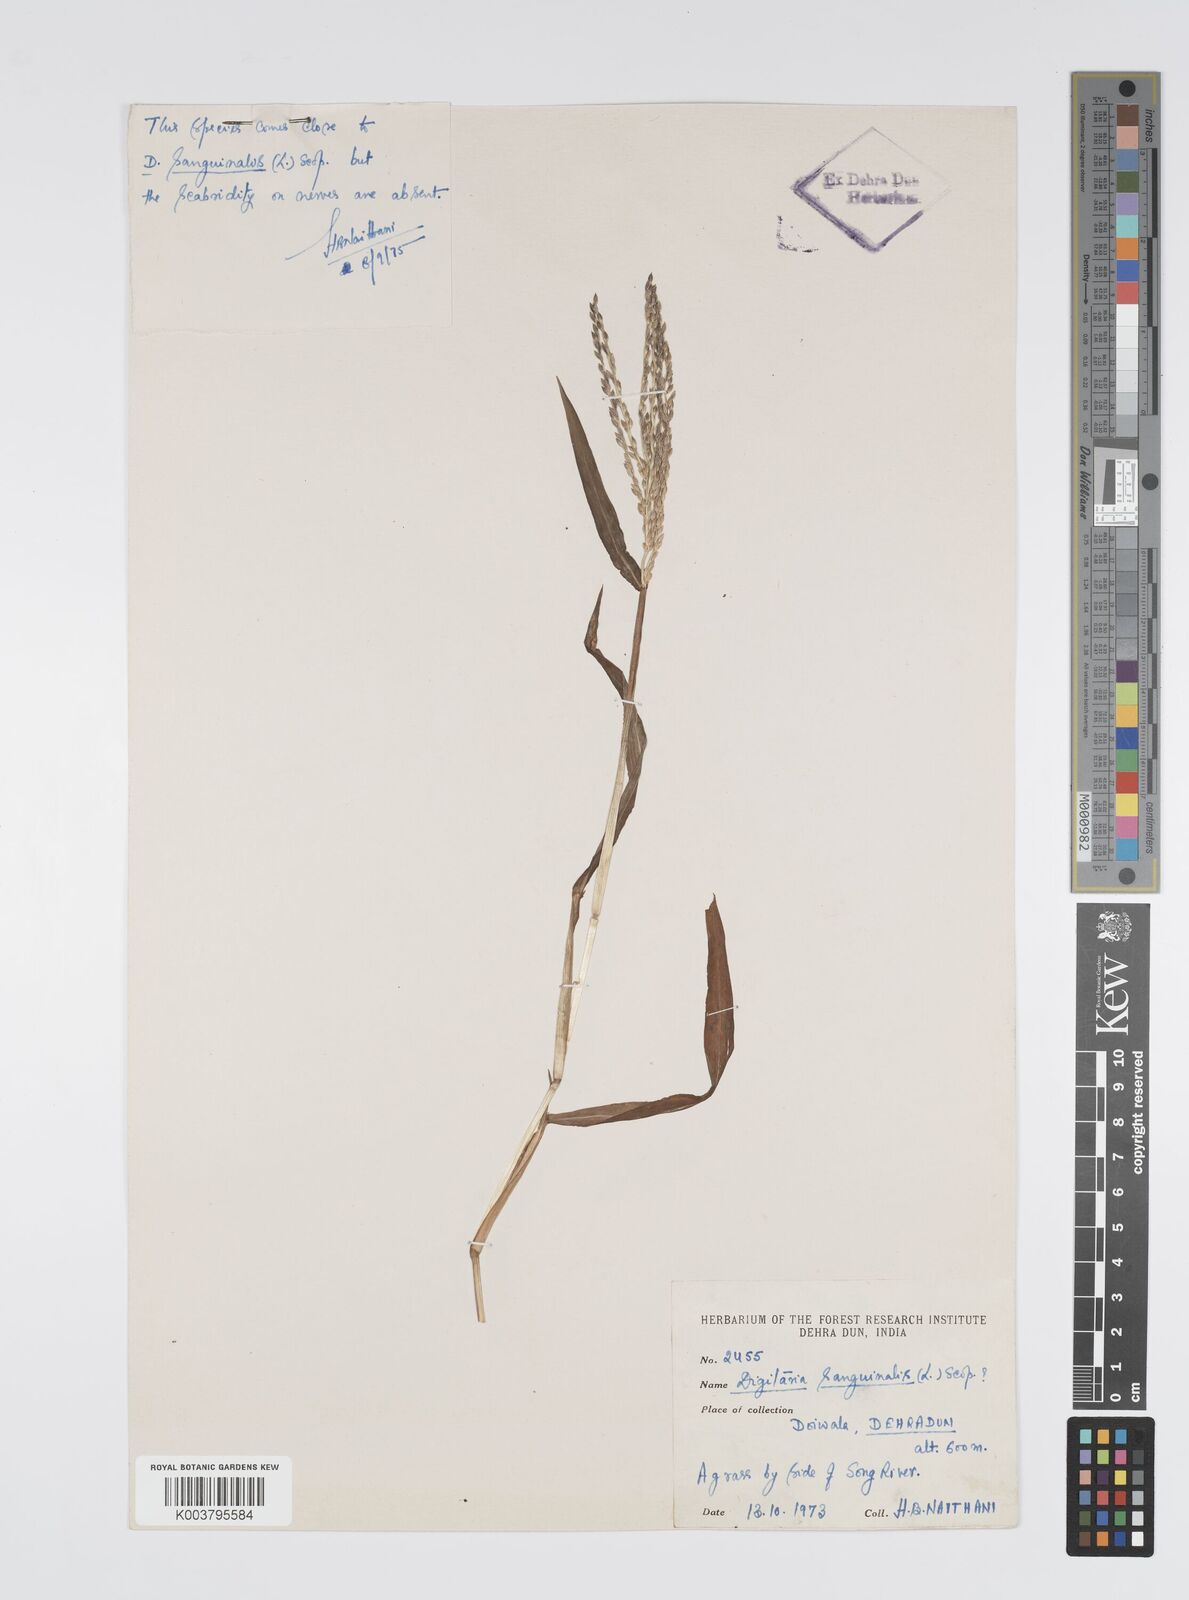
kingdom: Plantae
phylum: Tracheophyta
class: Liliopsida
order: Poales
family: Poaceae
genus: Digitaria
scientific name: Digitaria sanguinalis
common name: Hairy crabgrass
